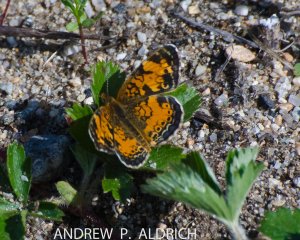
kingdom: Animalia
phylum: Arthropoda
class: Insecta
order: Lepidoptera
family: Nymphalidae
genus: Phyciodes
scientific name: Phyciodes tharos
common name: Northern Crescent
